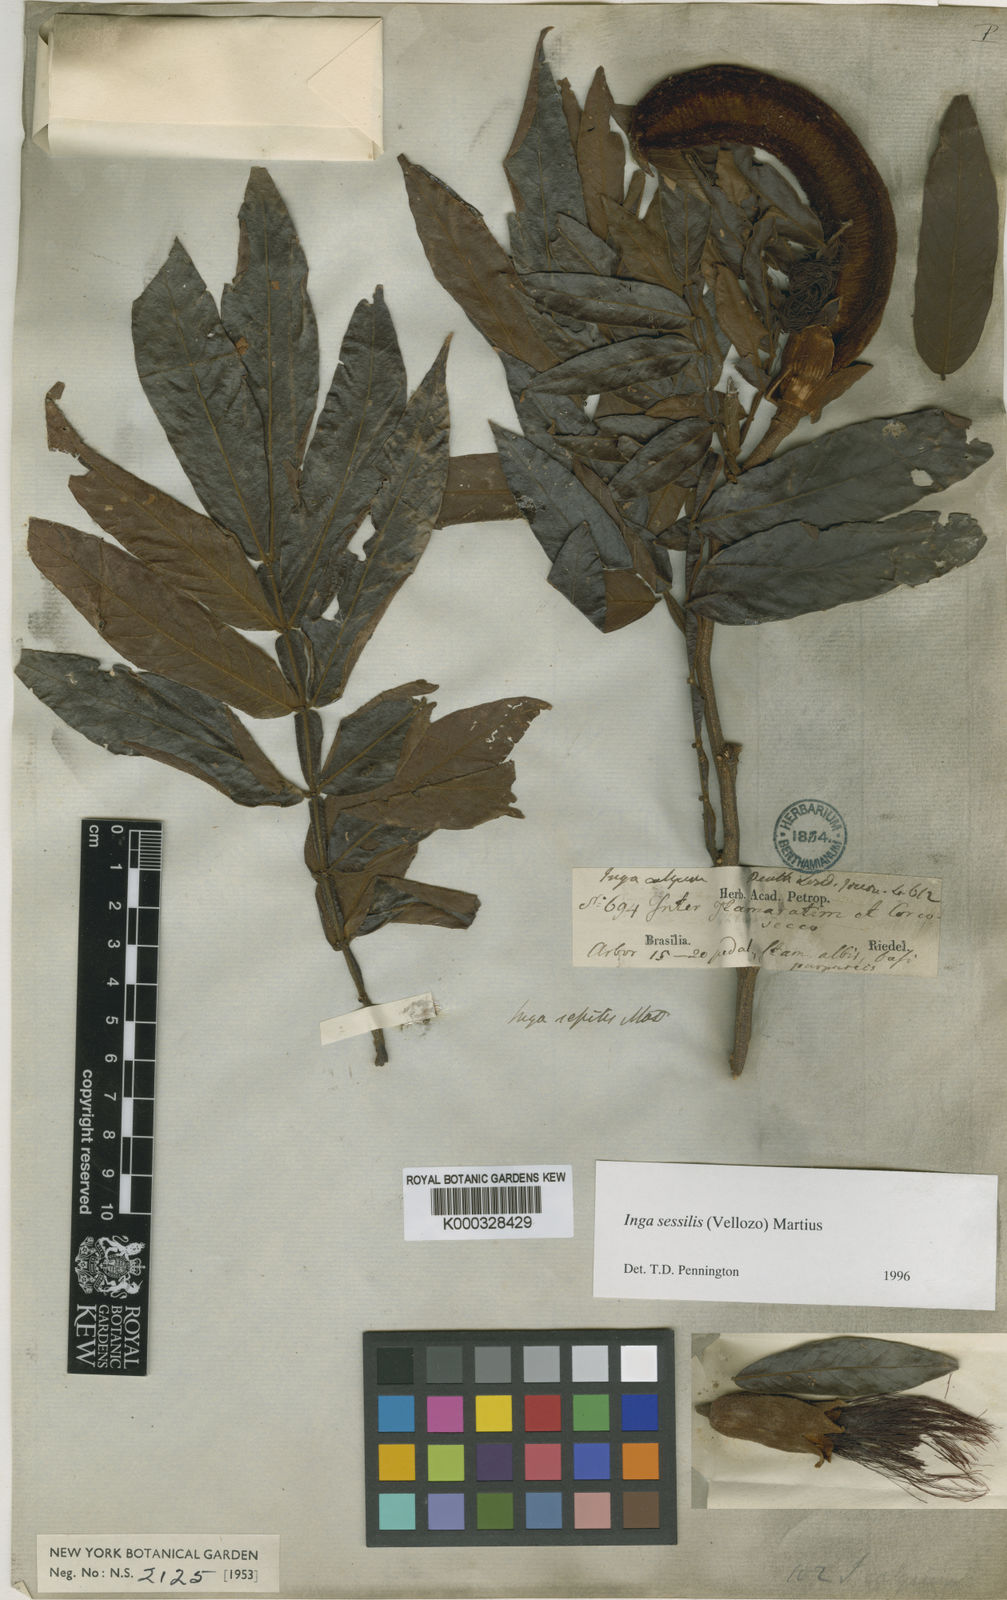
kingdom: Plantae
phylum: Tracheophyta
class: Magnoliopsida
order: Fabales
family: Fabaceae
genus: Inga
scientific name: Inga sessilis
